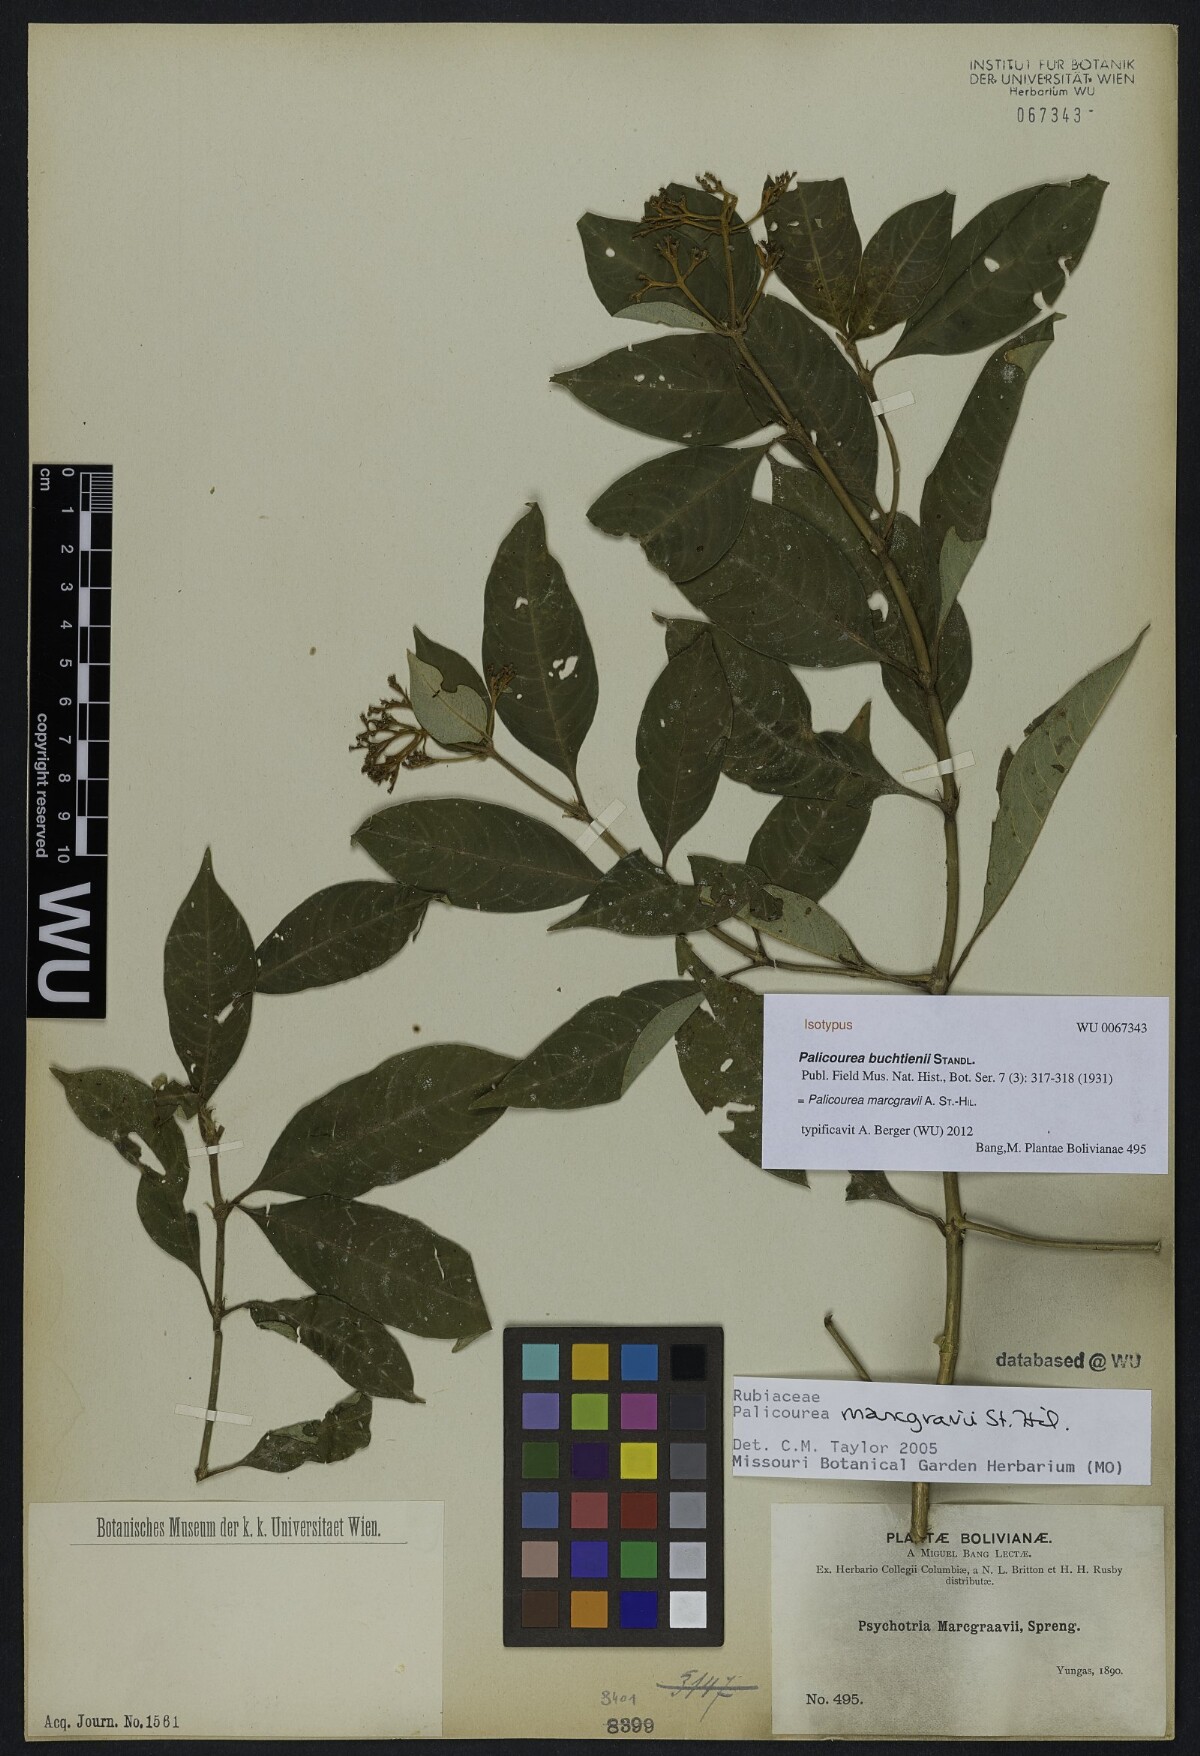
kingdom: Plantae
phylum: Tracheophyta
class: Magnoliopsida
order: Gentianales
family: Rubiaceae
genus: Palicourea
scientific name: Palicourea buchtienii
